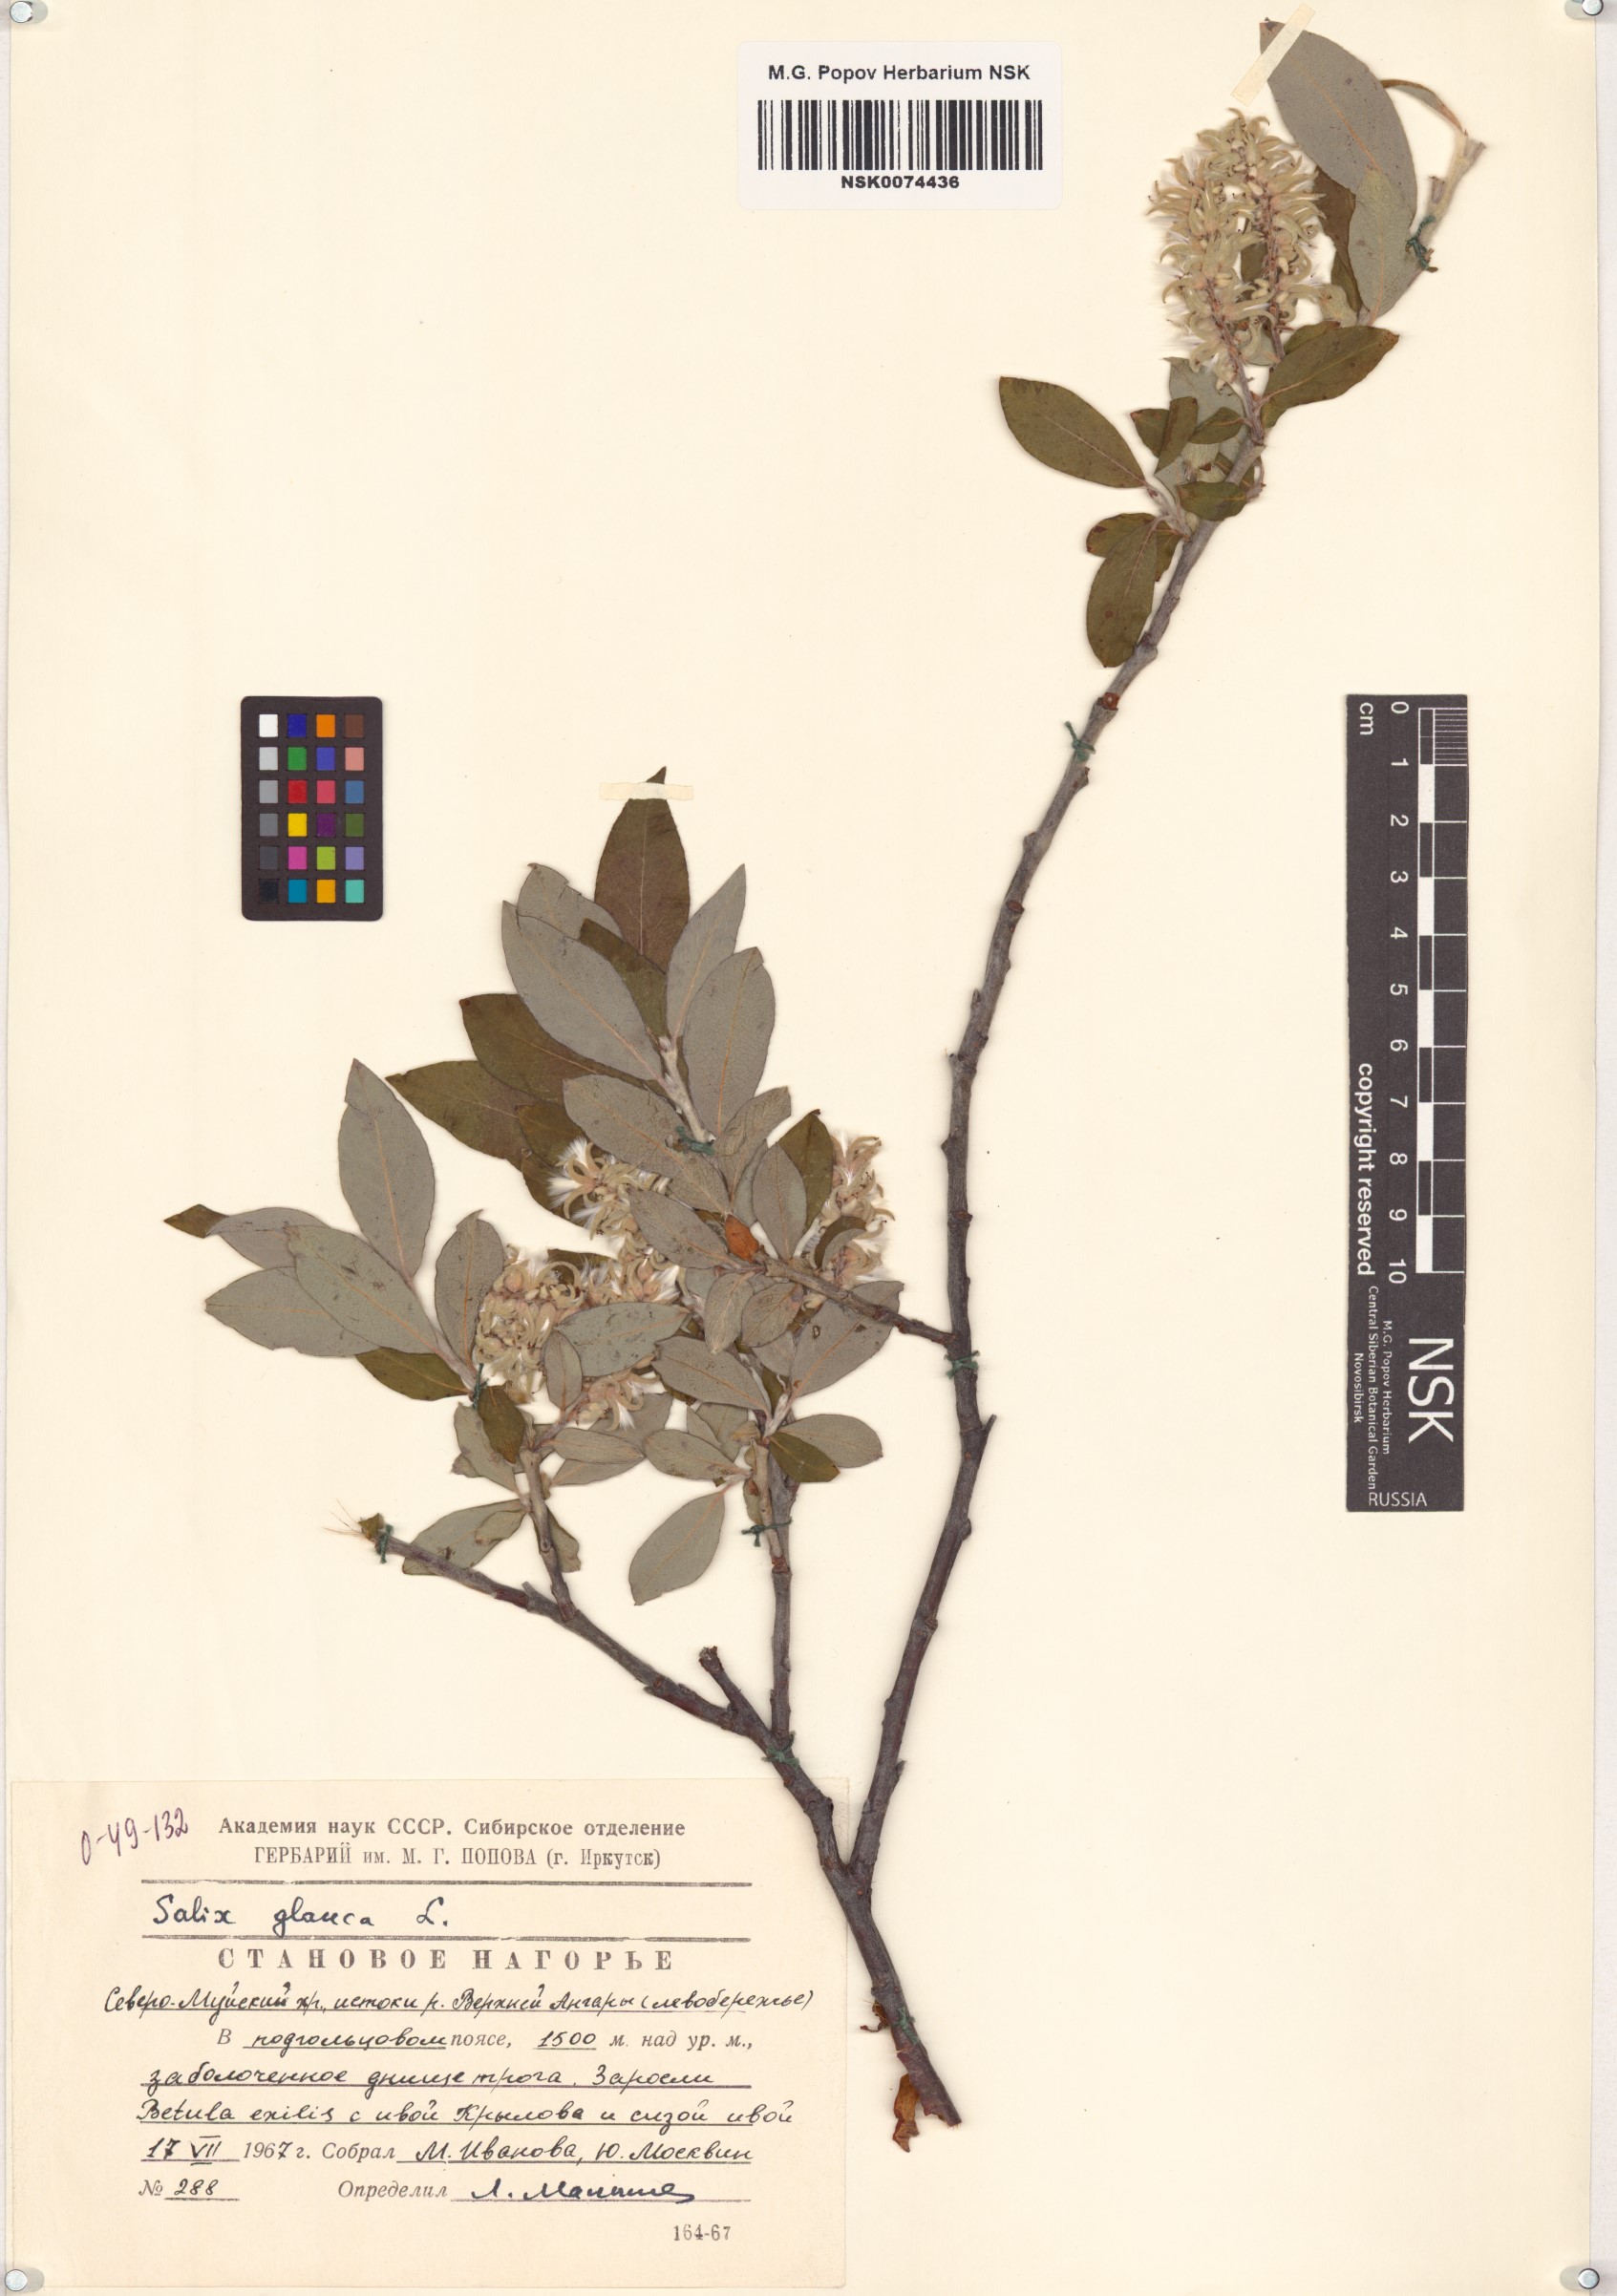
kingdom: Plantae
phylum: Tracheophyta
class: Magnoliopsida
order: Malpighiales
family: Salicaceae
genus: Salix
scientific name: Salix glauca
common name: Glaucous willow
